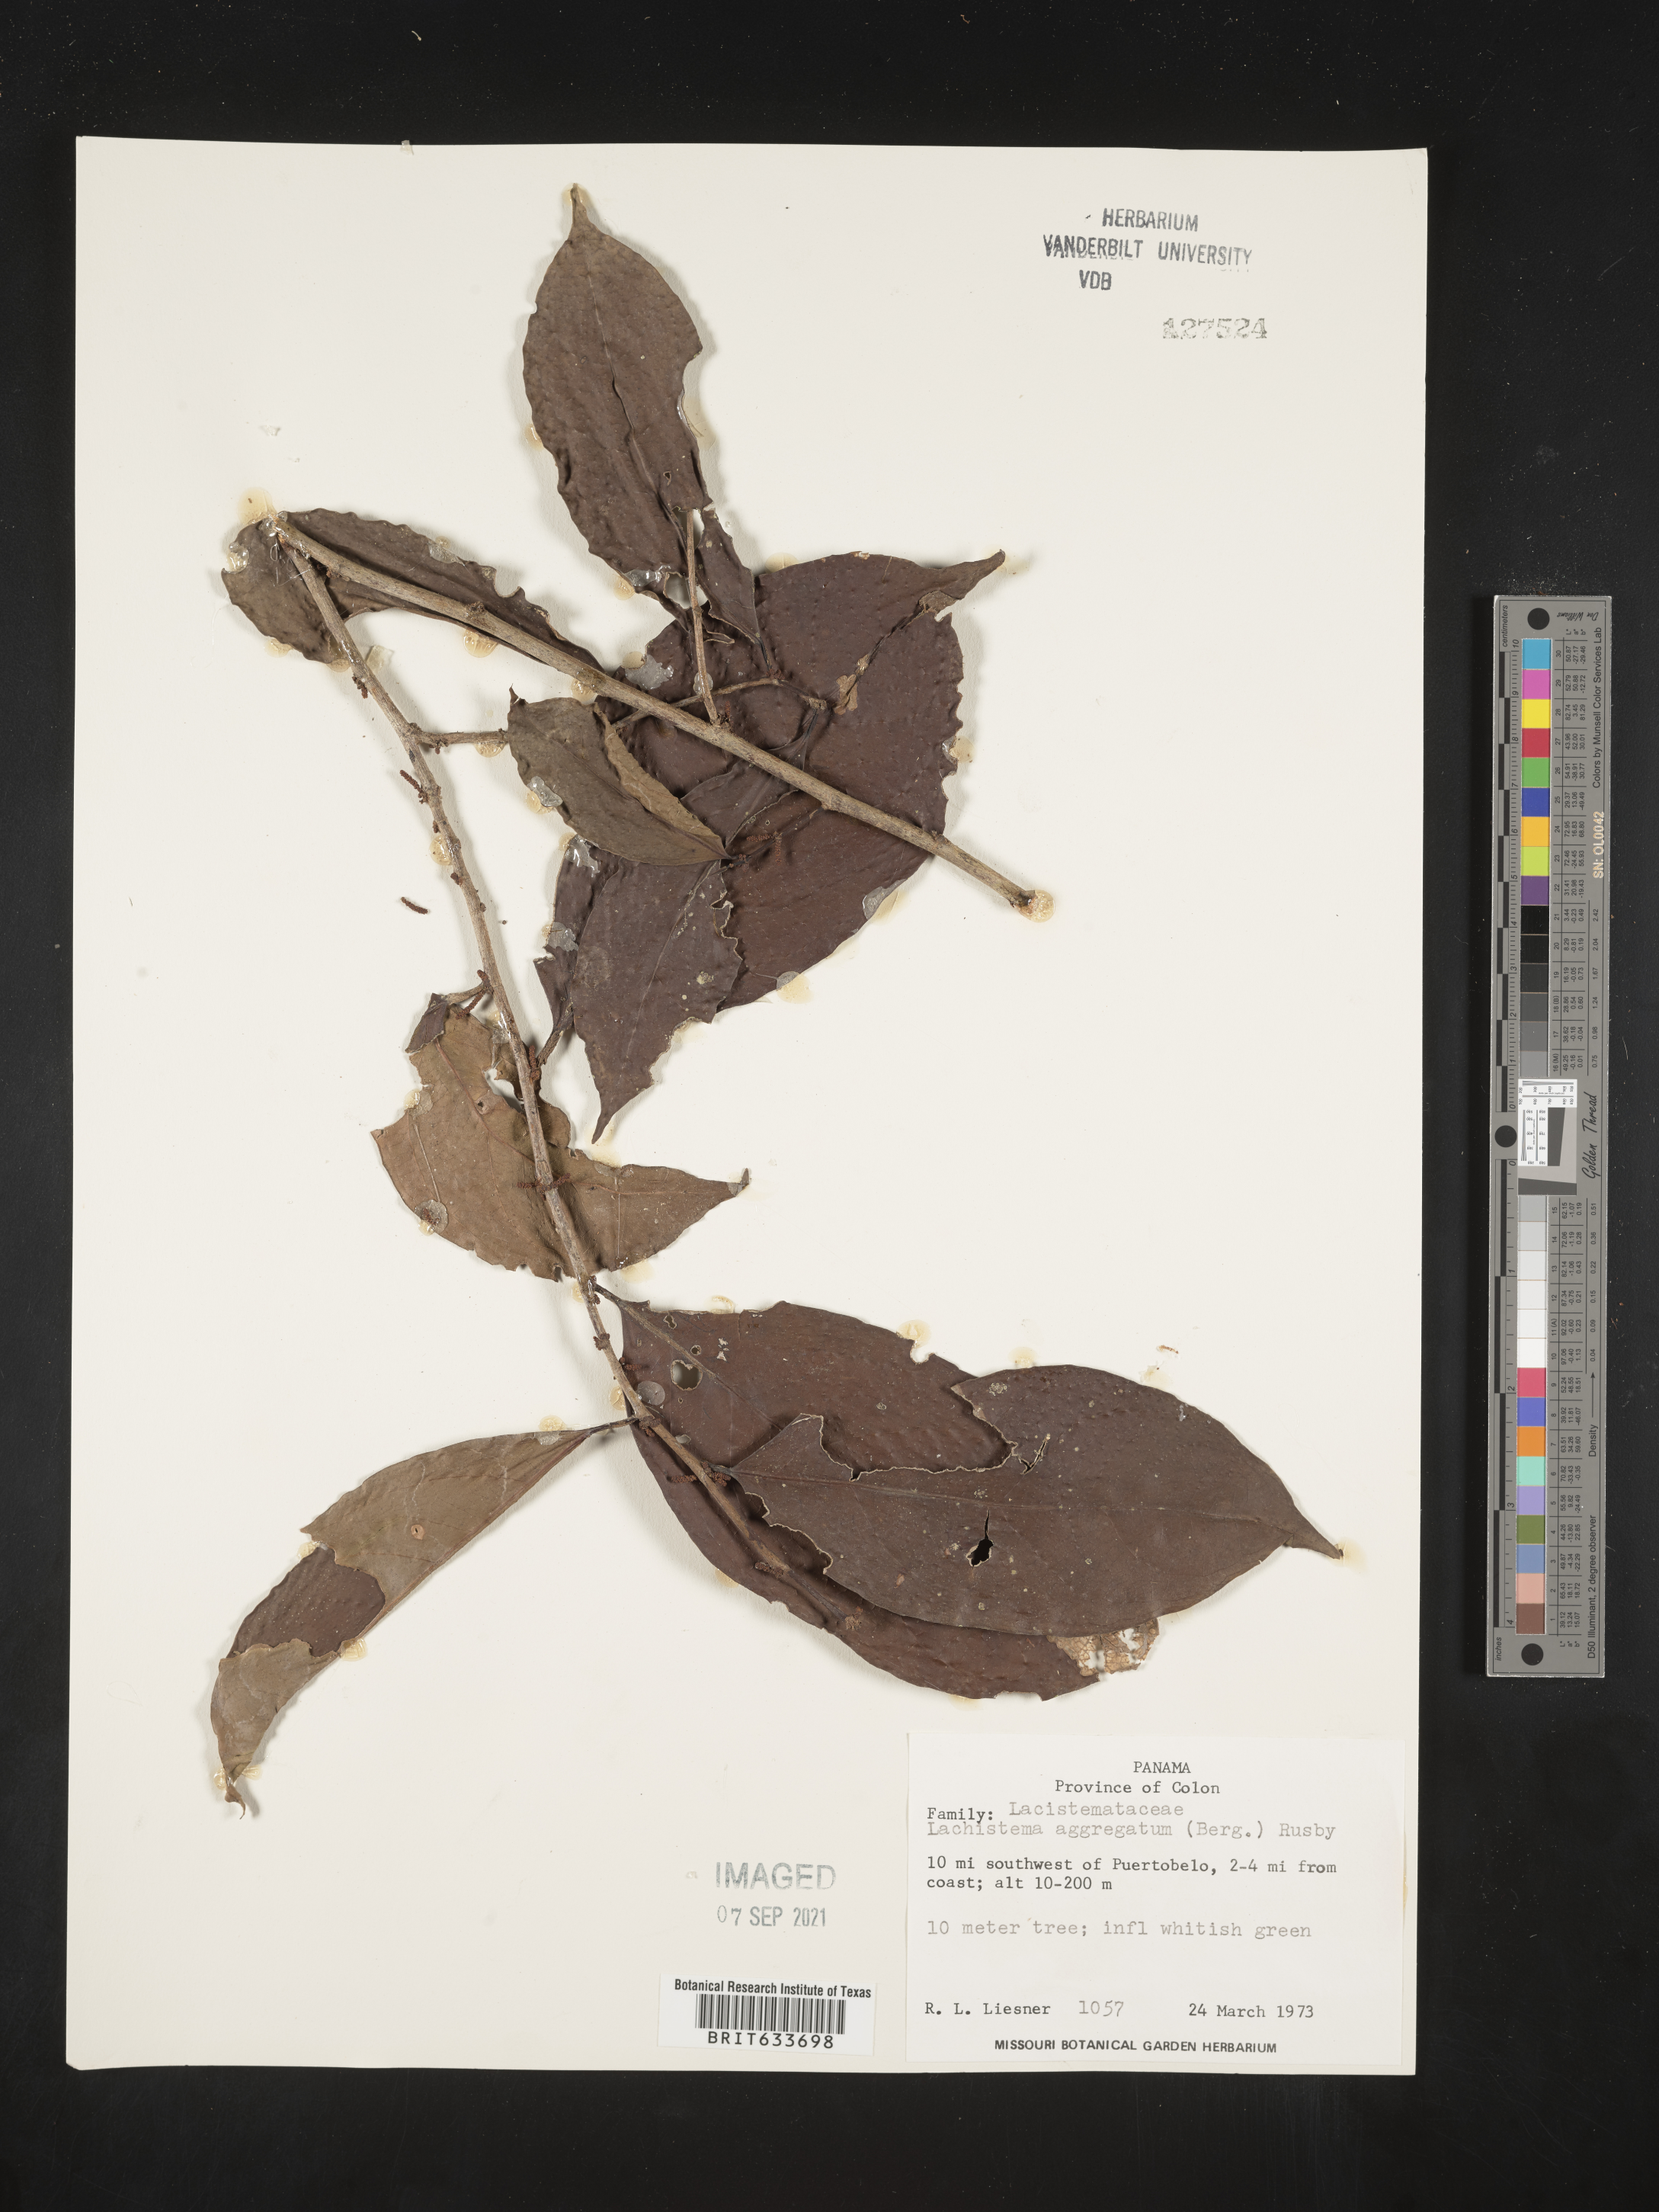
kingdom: Plantae
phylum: Tracheophyta
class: Magnoliopsida
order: Malpighiales
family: Lacistemataceae
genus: Lacistema
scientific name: Lacistema
